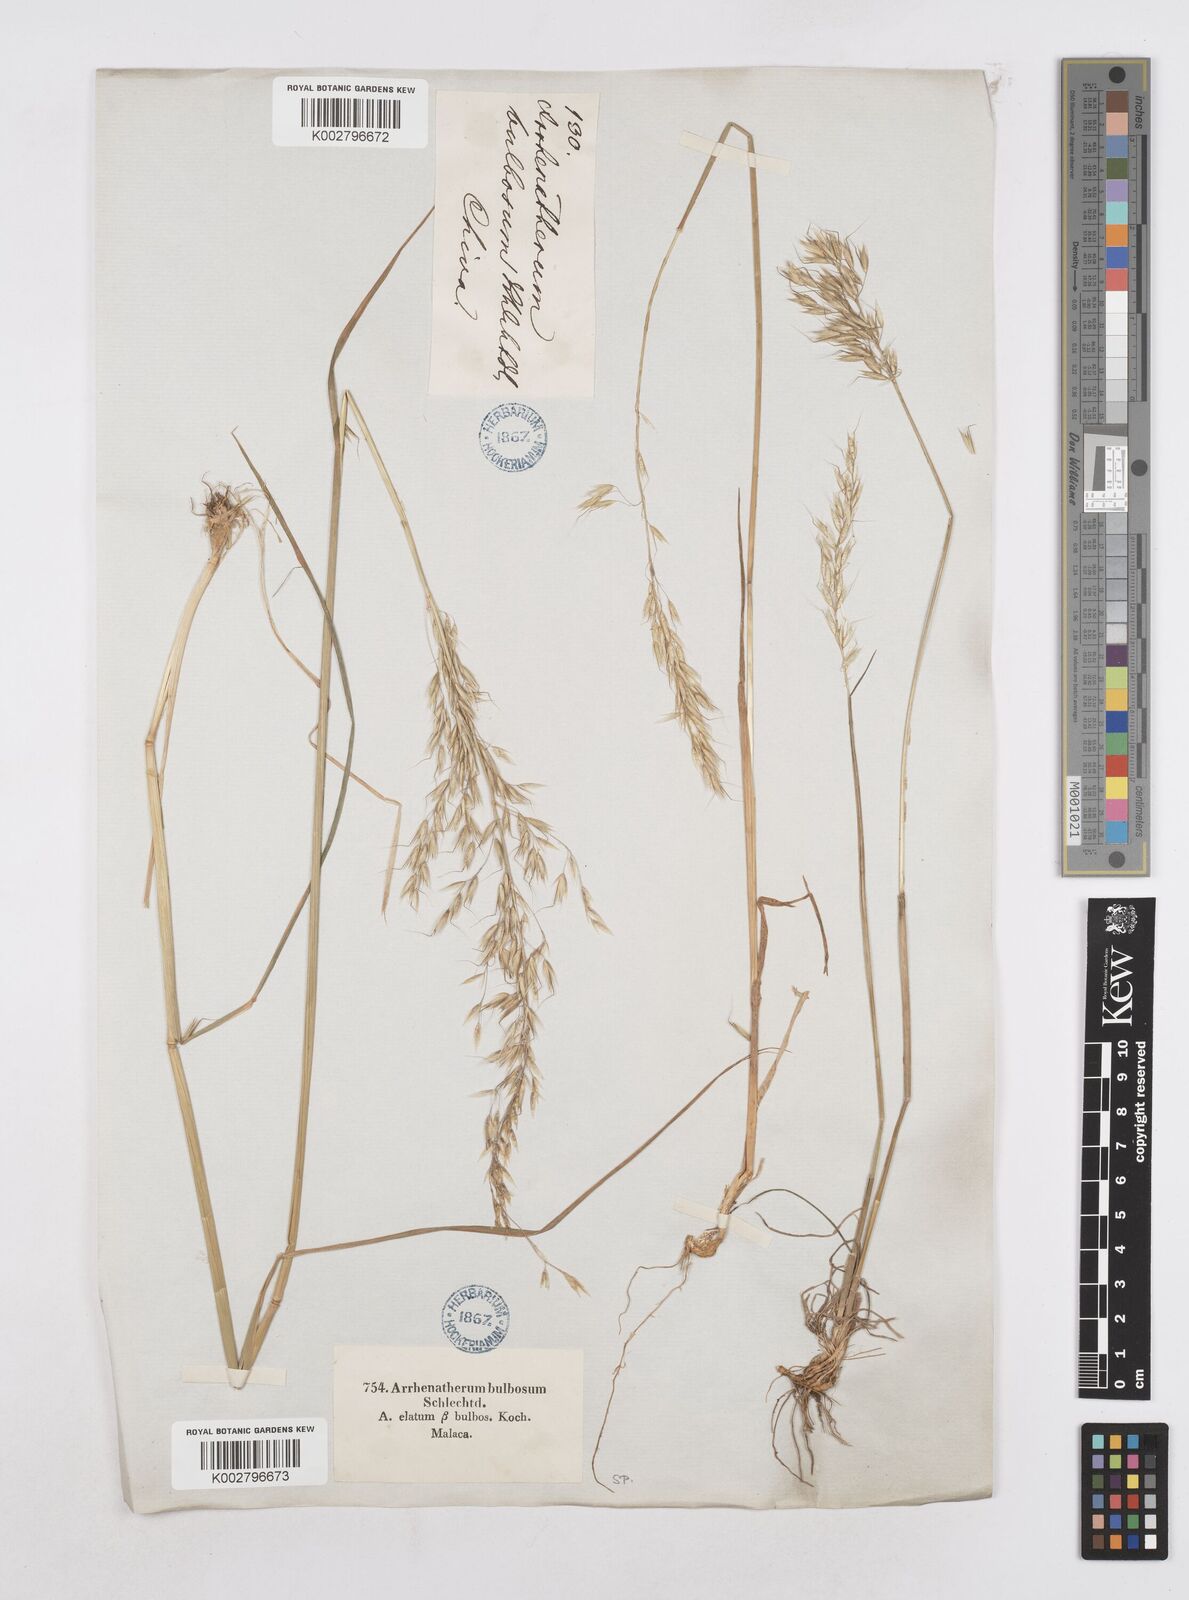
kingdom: Plantae
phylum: Tracheophyta
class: Liliopsida
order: Poales
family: Poaceae
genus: Arrhenatherum
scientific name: Arrhenatherum elatius
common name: Tall oatgrass
